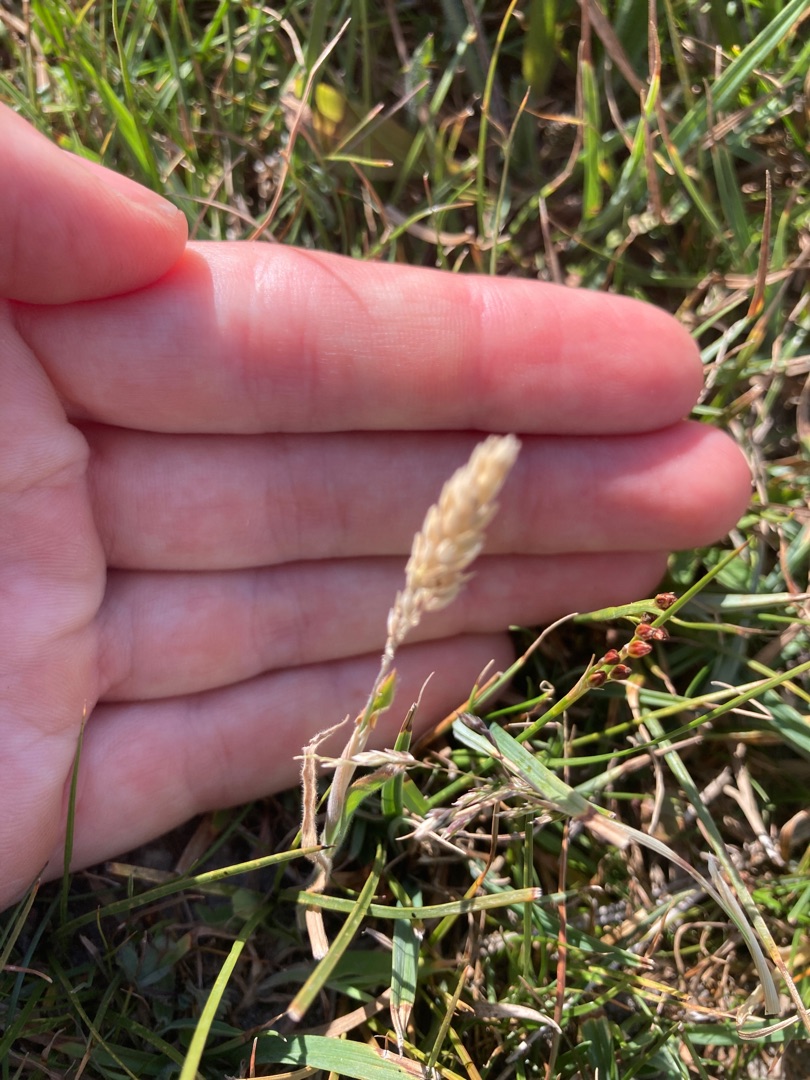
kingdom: Plantae
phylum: Tracheophyta
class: Liliopsida
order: Poales
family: Poaceae
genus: Holcus
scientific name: Holcus lanatus
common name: Fløjlsgræs
